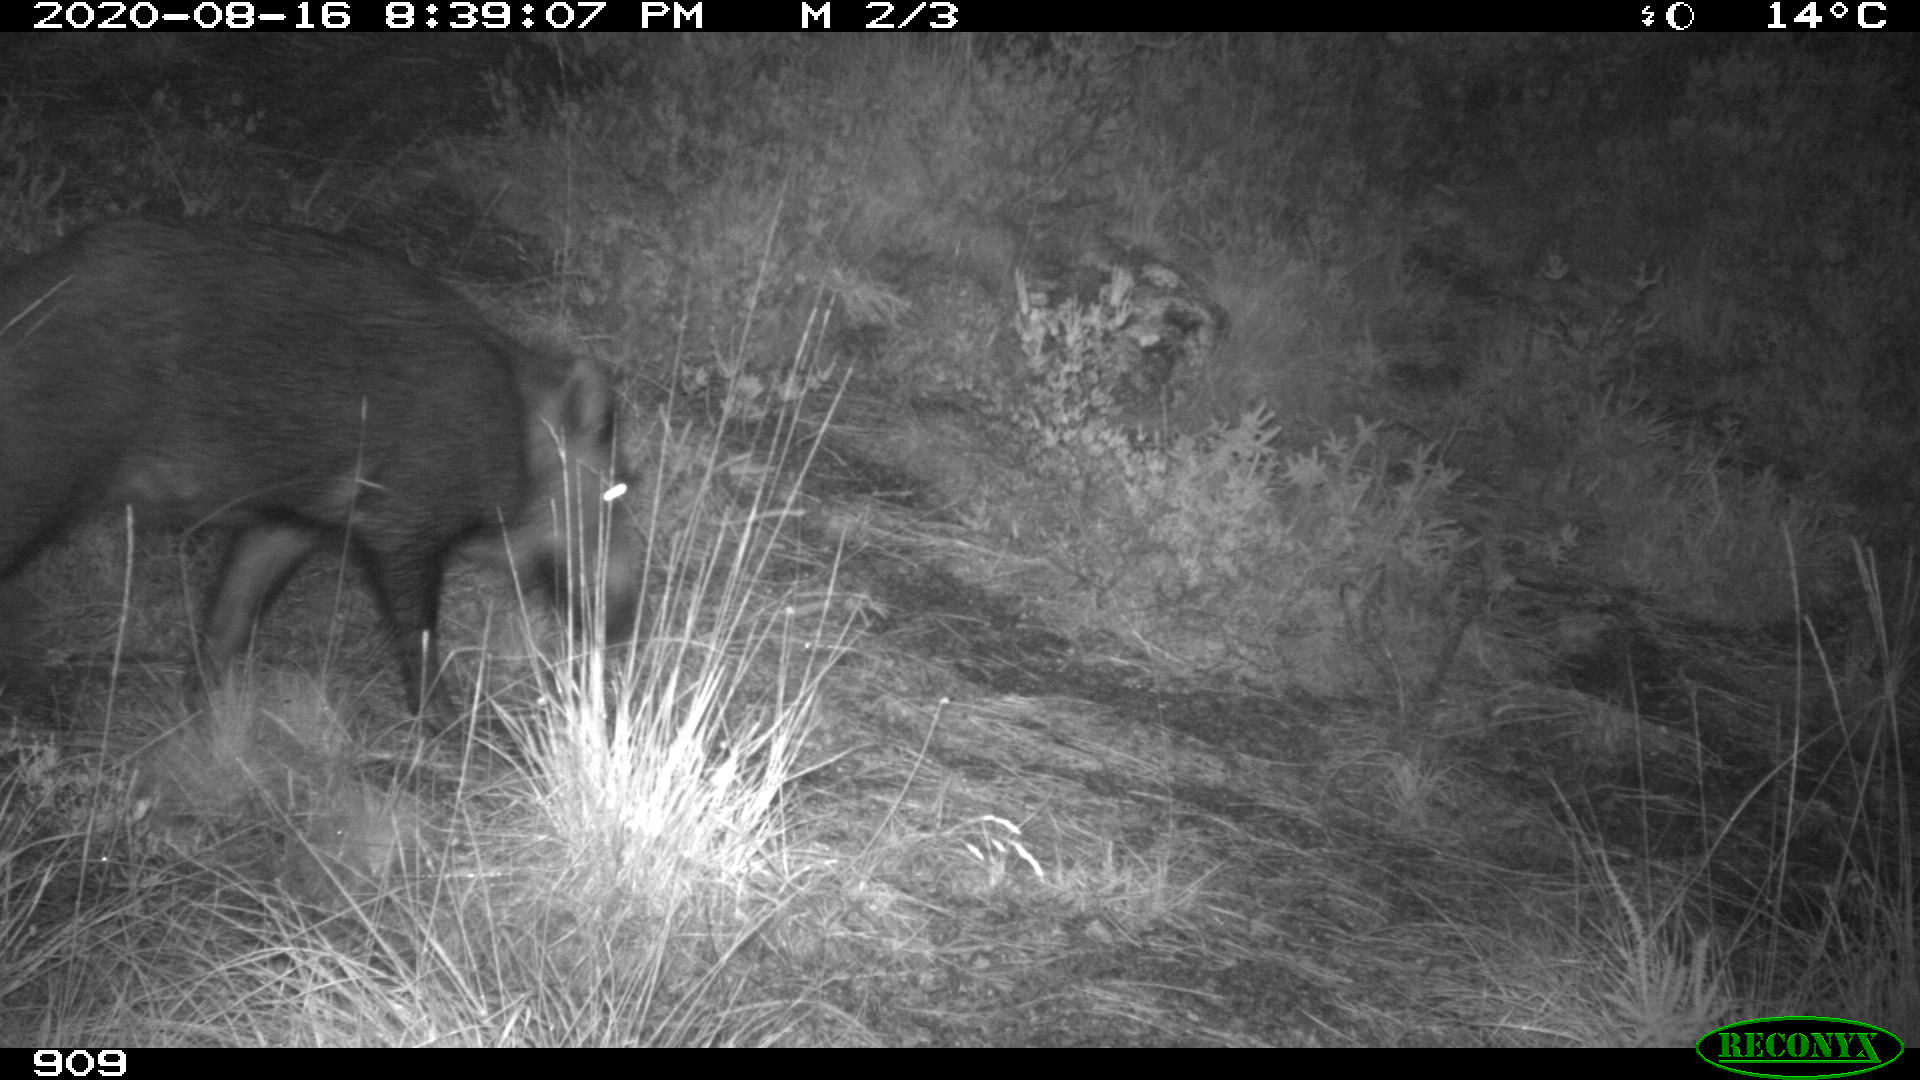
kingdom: Animalia
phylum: Chordata
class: Mammalia
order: Artiodactyla
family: Suidae
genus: Sus
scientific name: Sus scrofa
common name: Wild boar
